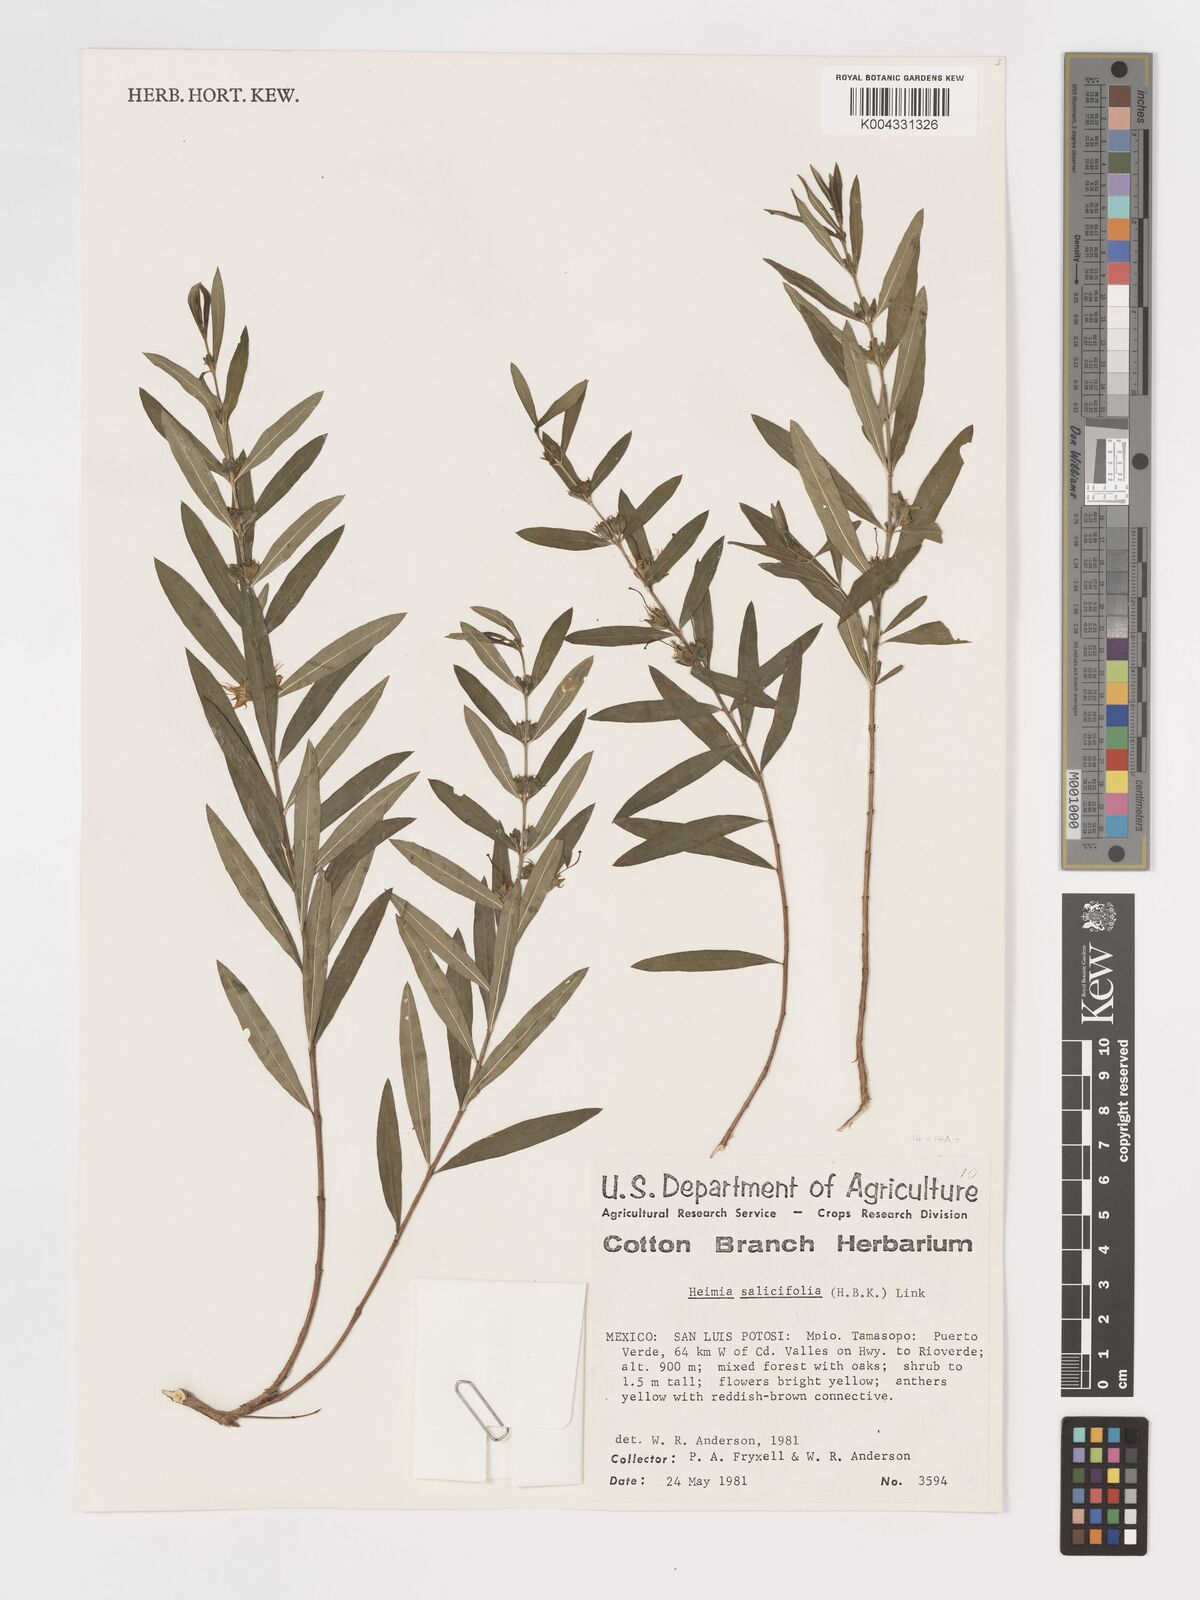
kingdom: Plantae
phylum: Tracheophyta
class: Magnoliopsida
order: Myrtales
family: Lythraceae
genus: Heimia
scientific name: Heimia salicifolia
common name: Willow-leaf heimia
